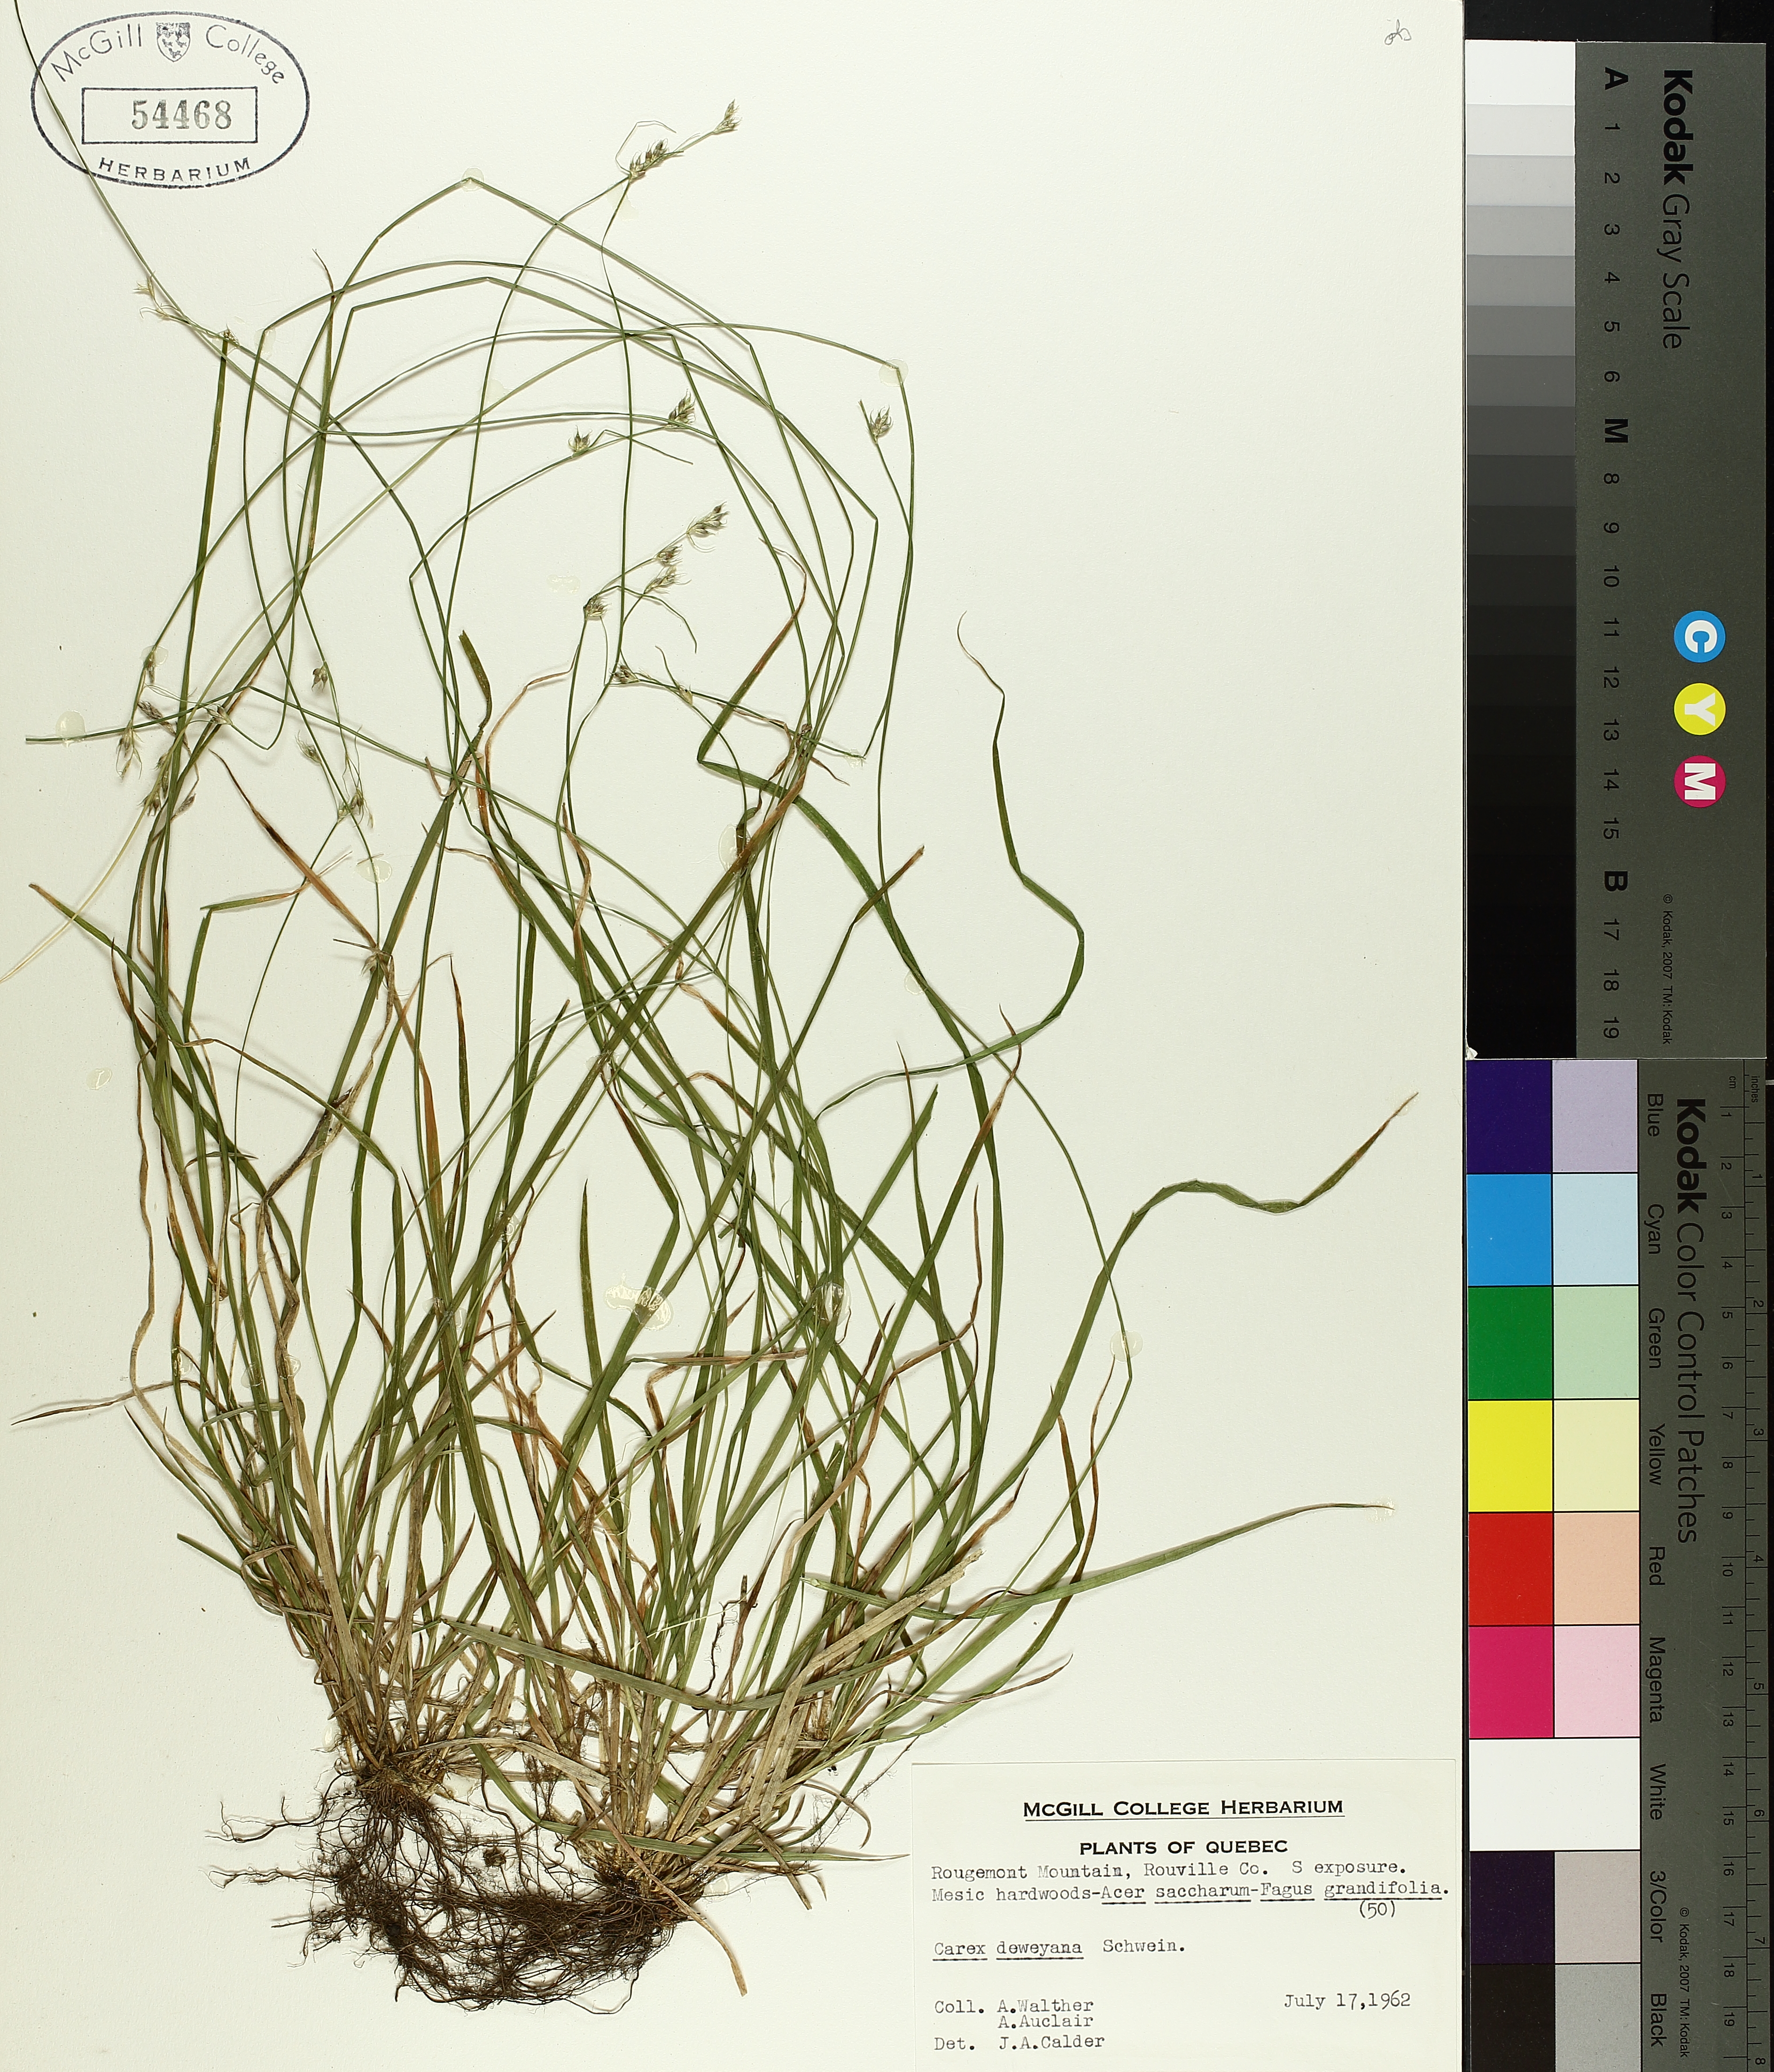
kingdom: Plantae
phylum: Tracheophyta
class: Liliopsida
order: Poales
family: Cyperaceae
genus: Carex
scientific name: Carex deweyana
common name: Dewey's sedge
